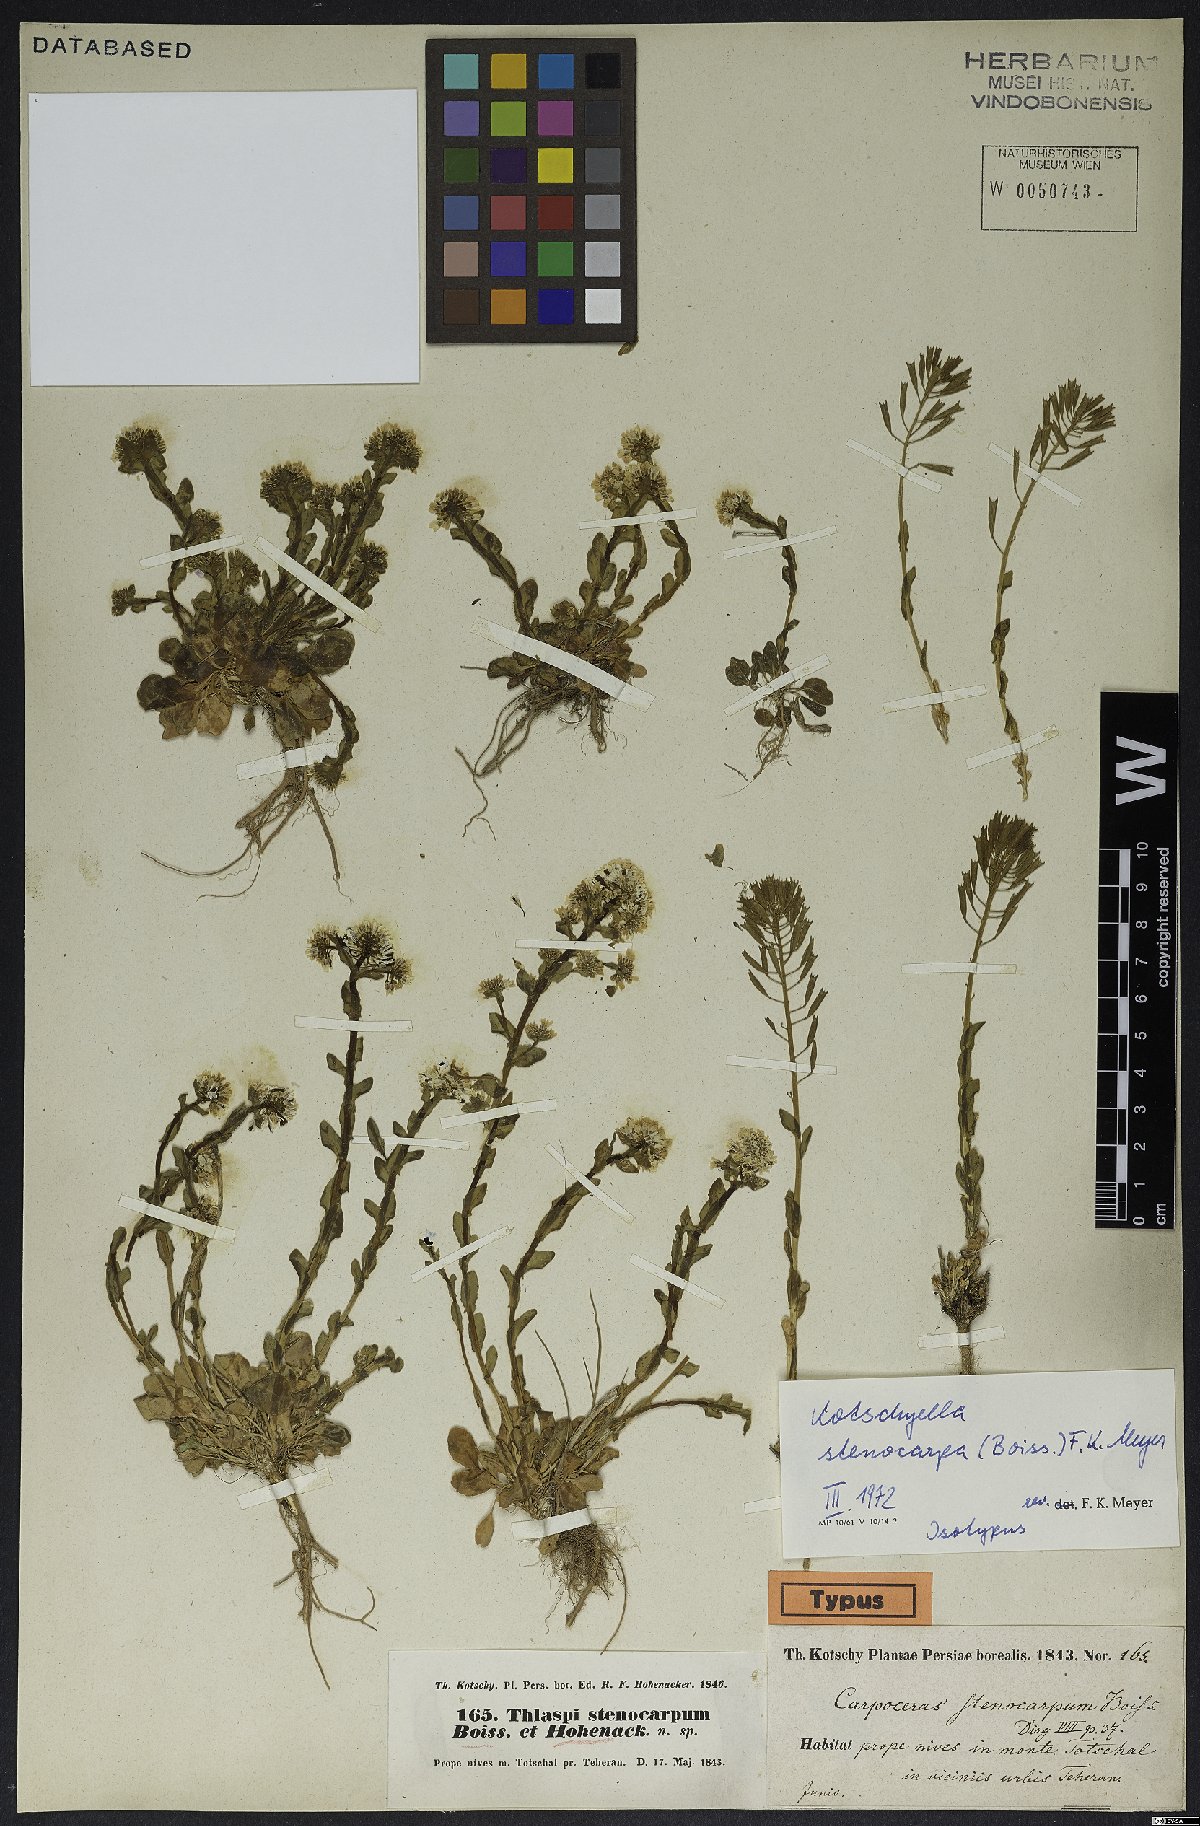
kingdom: Plantae
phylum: Tracheophyta
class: Magnoliopsida
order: Brassicales
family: Brassicaceae
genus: Noccaea
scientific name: Noccaea stenocarpa
